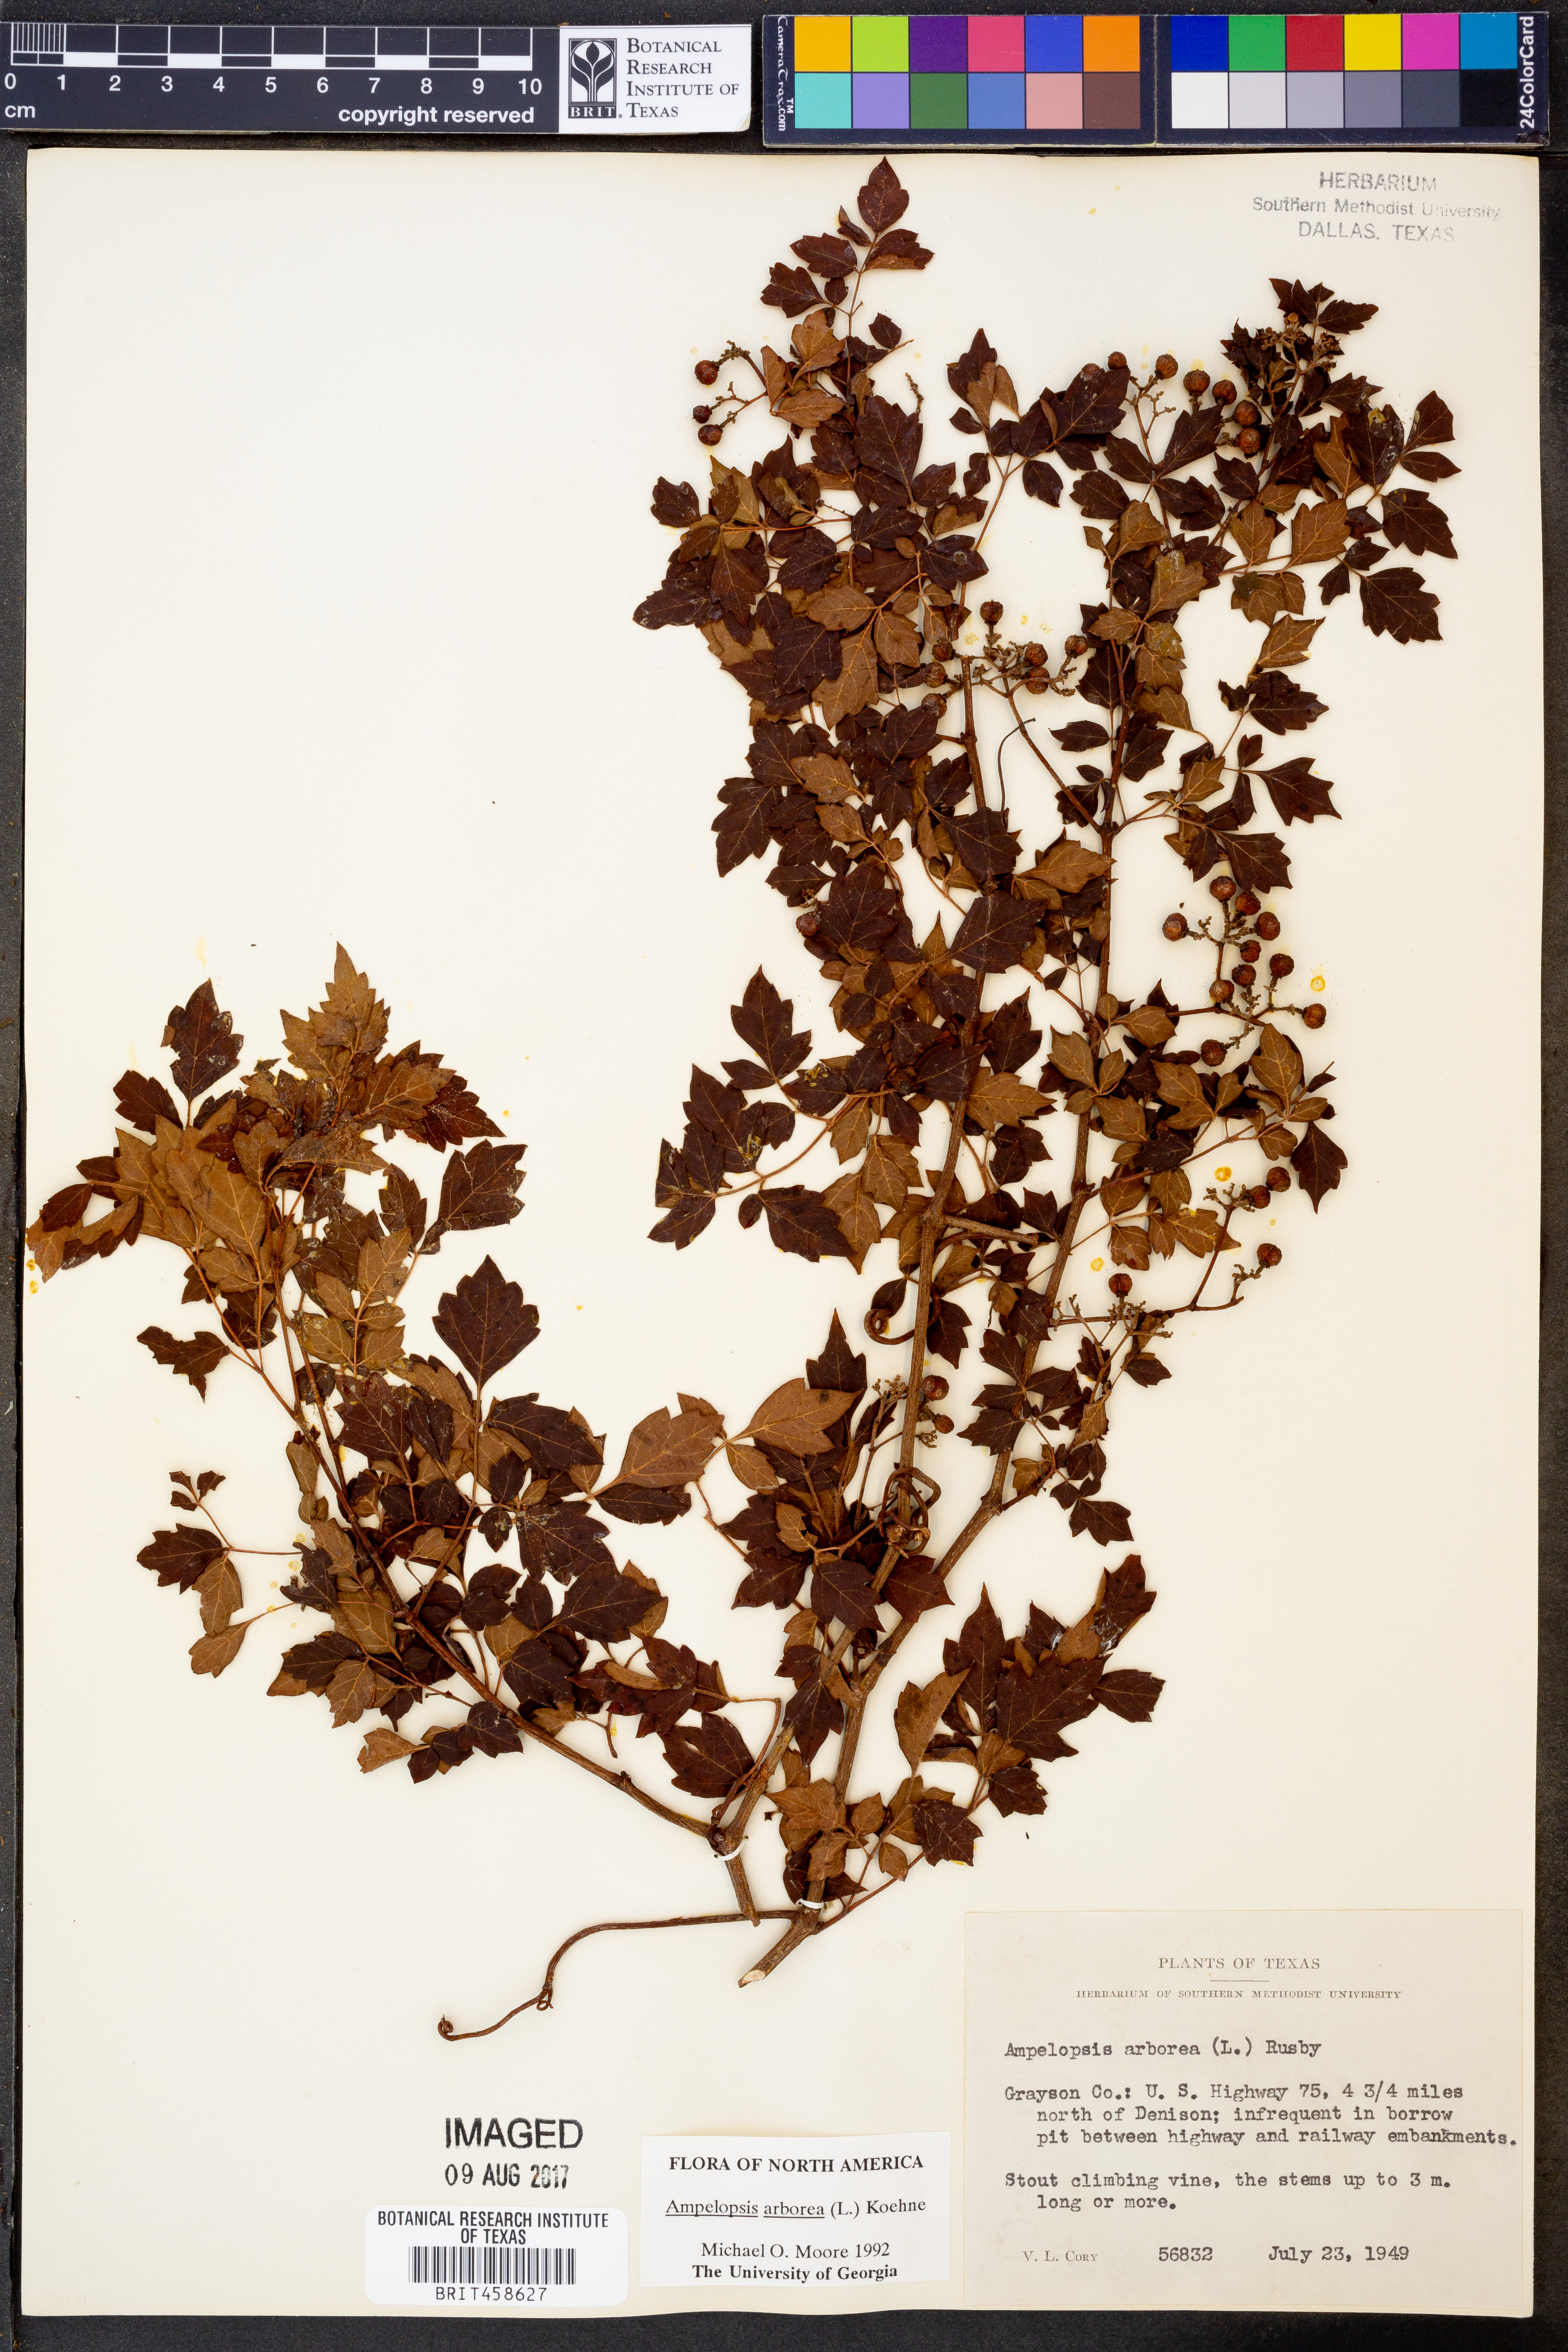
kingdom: Plantae
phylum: Tracheophyta
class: Magnoliopsida
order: Vitales
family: Vitaceae
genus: Nekemias
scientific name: Nekemias arborea
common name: Peppervine
